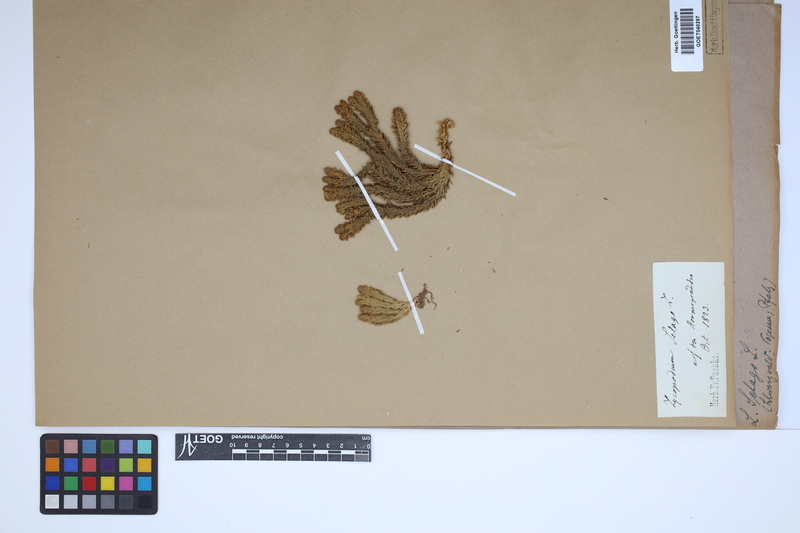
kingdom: Plantae
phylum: Tracheophyta
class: Lycopodiopsida
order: Lycopodiales
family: Lycopodiaceae
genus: Huperzia
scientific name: Huperzia selago
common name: Northern firmoss
